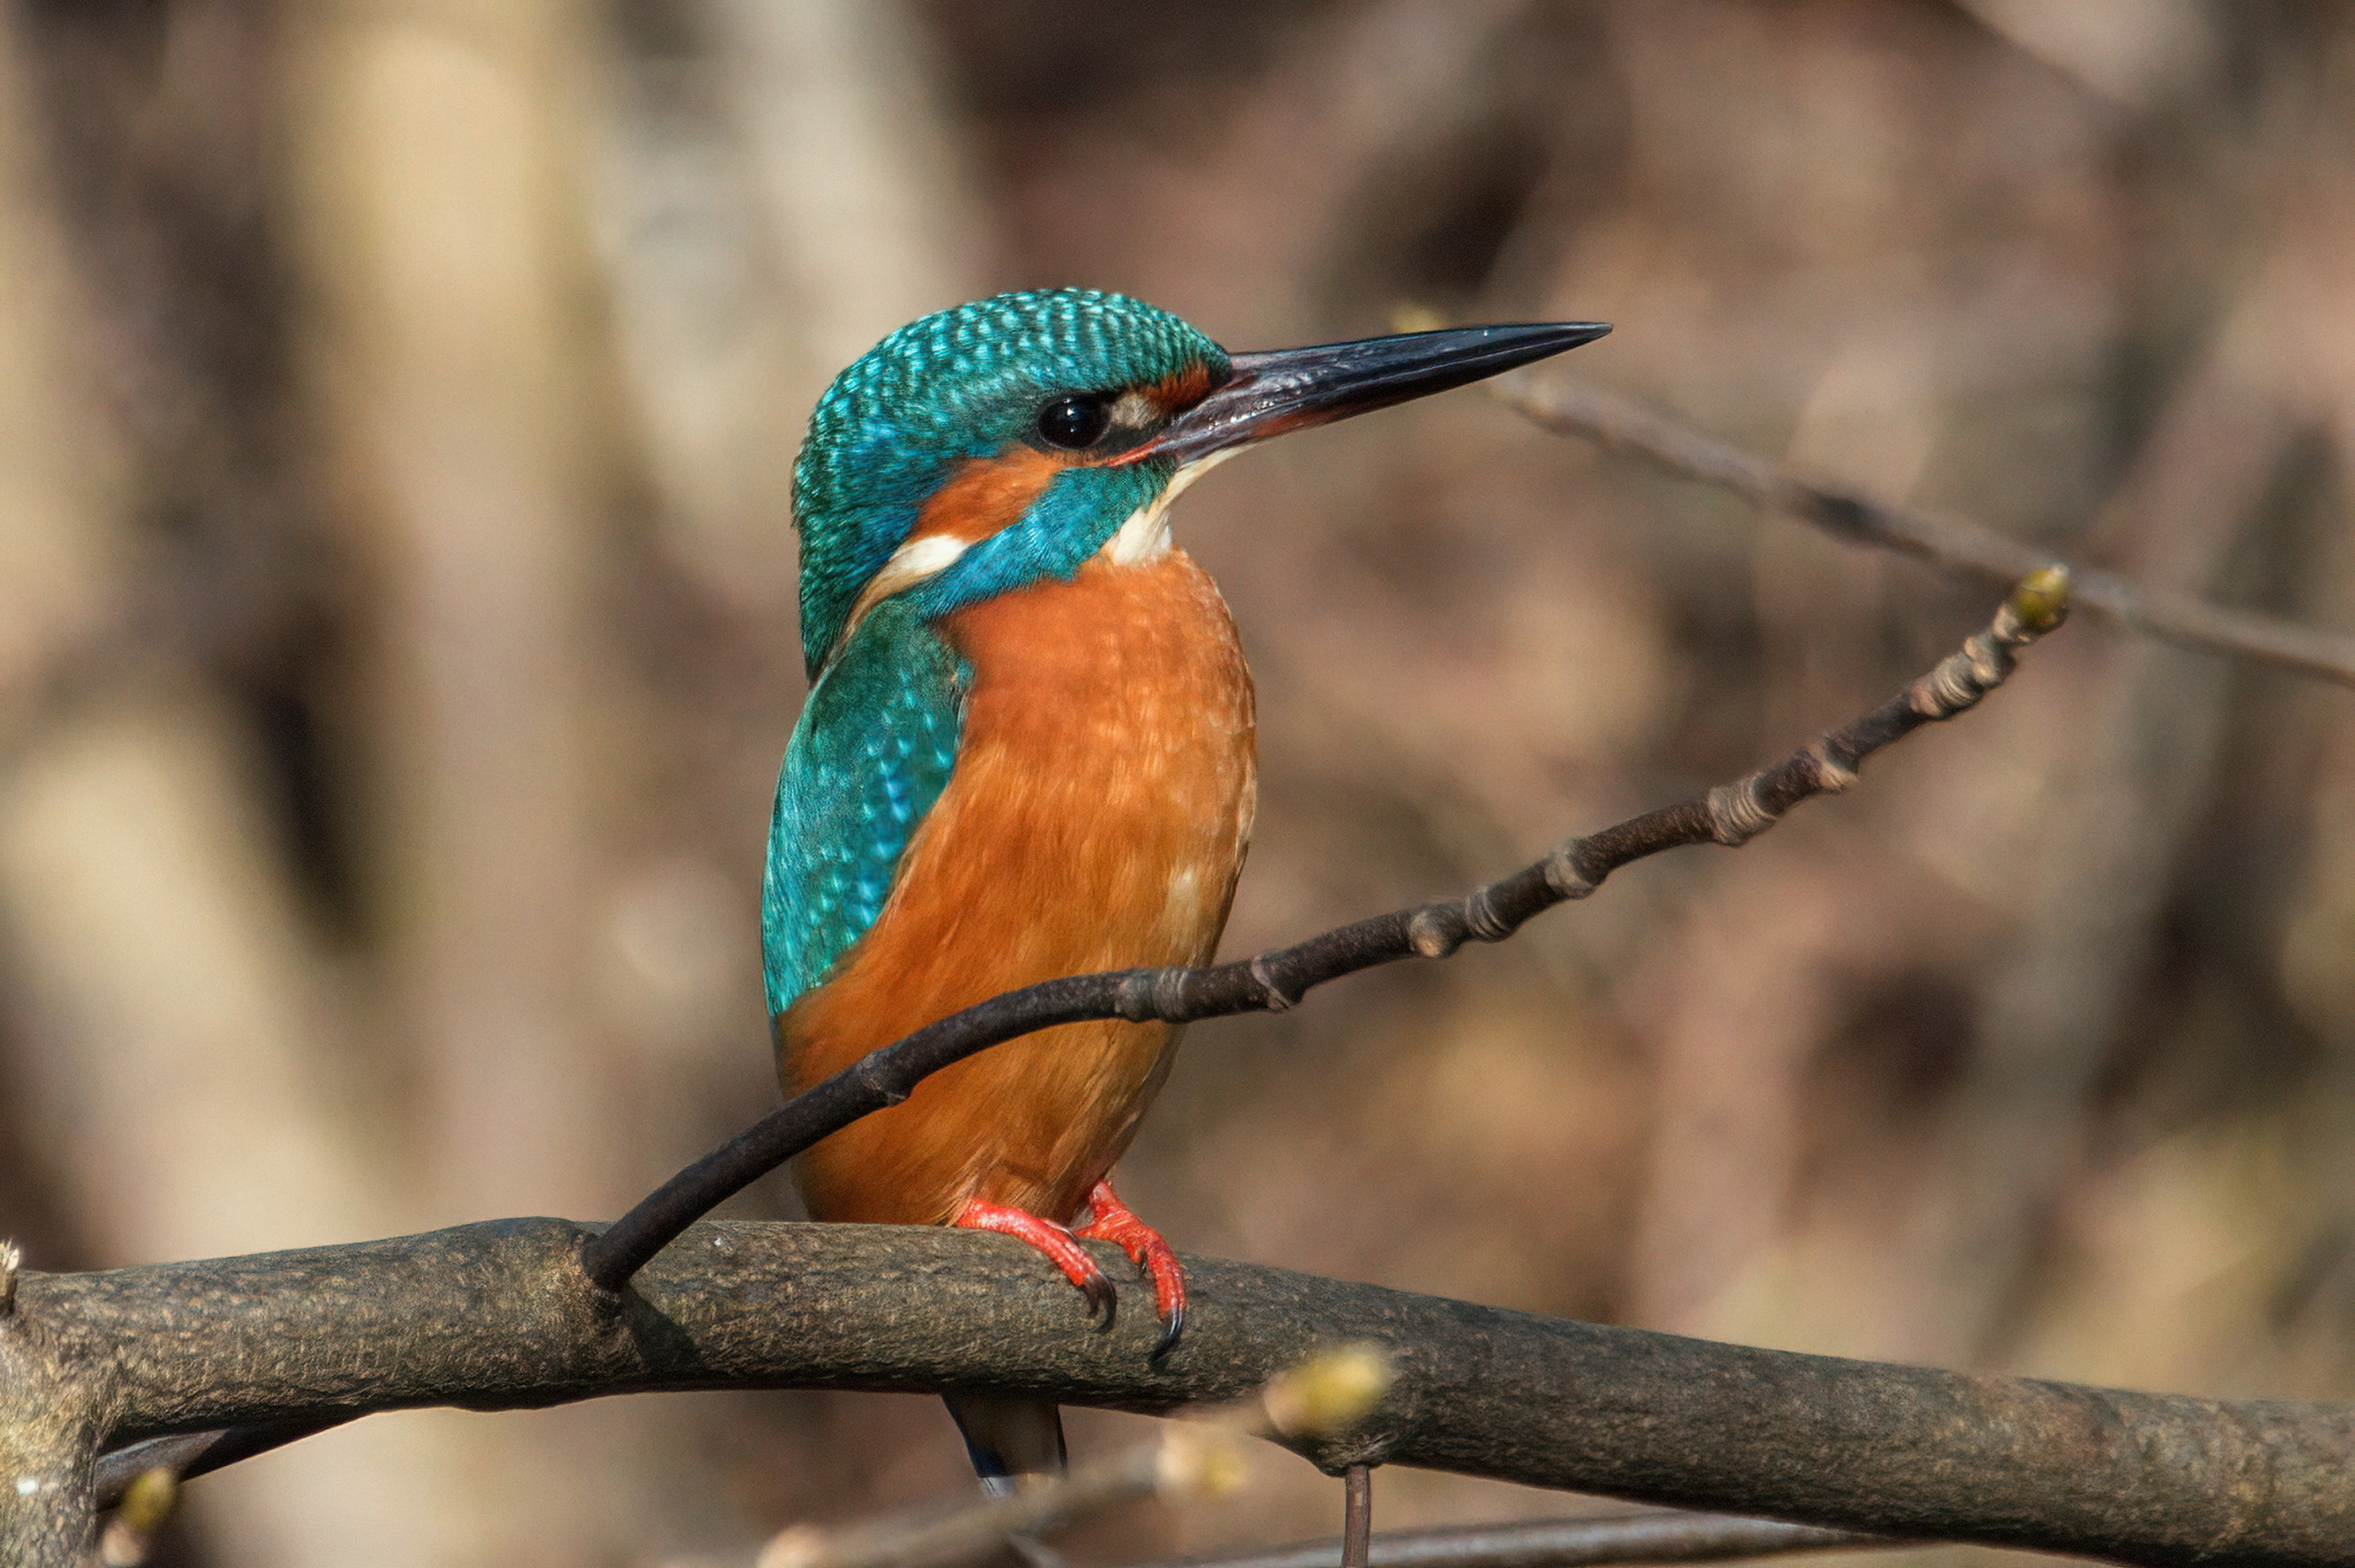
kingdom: Animalia
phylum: Chordata
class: Aves
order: Coraciiformes
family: Alcedinidae
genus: Alcedo
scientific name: Alcedo atthis
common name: Isfugl
